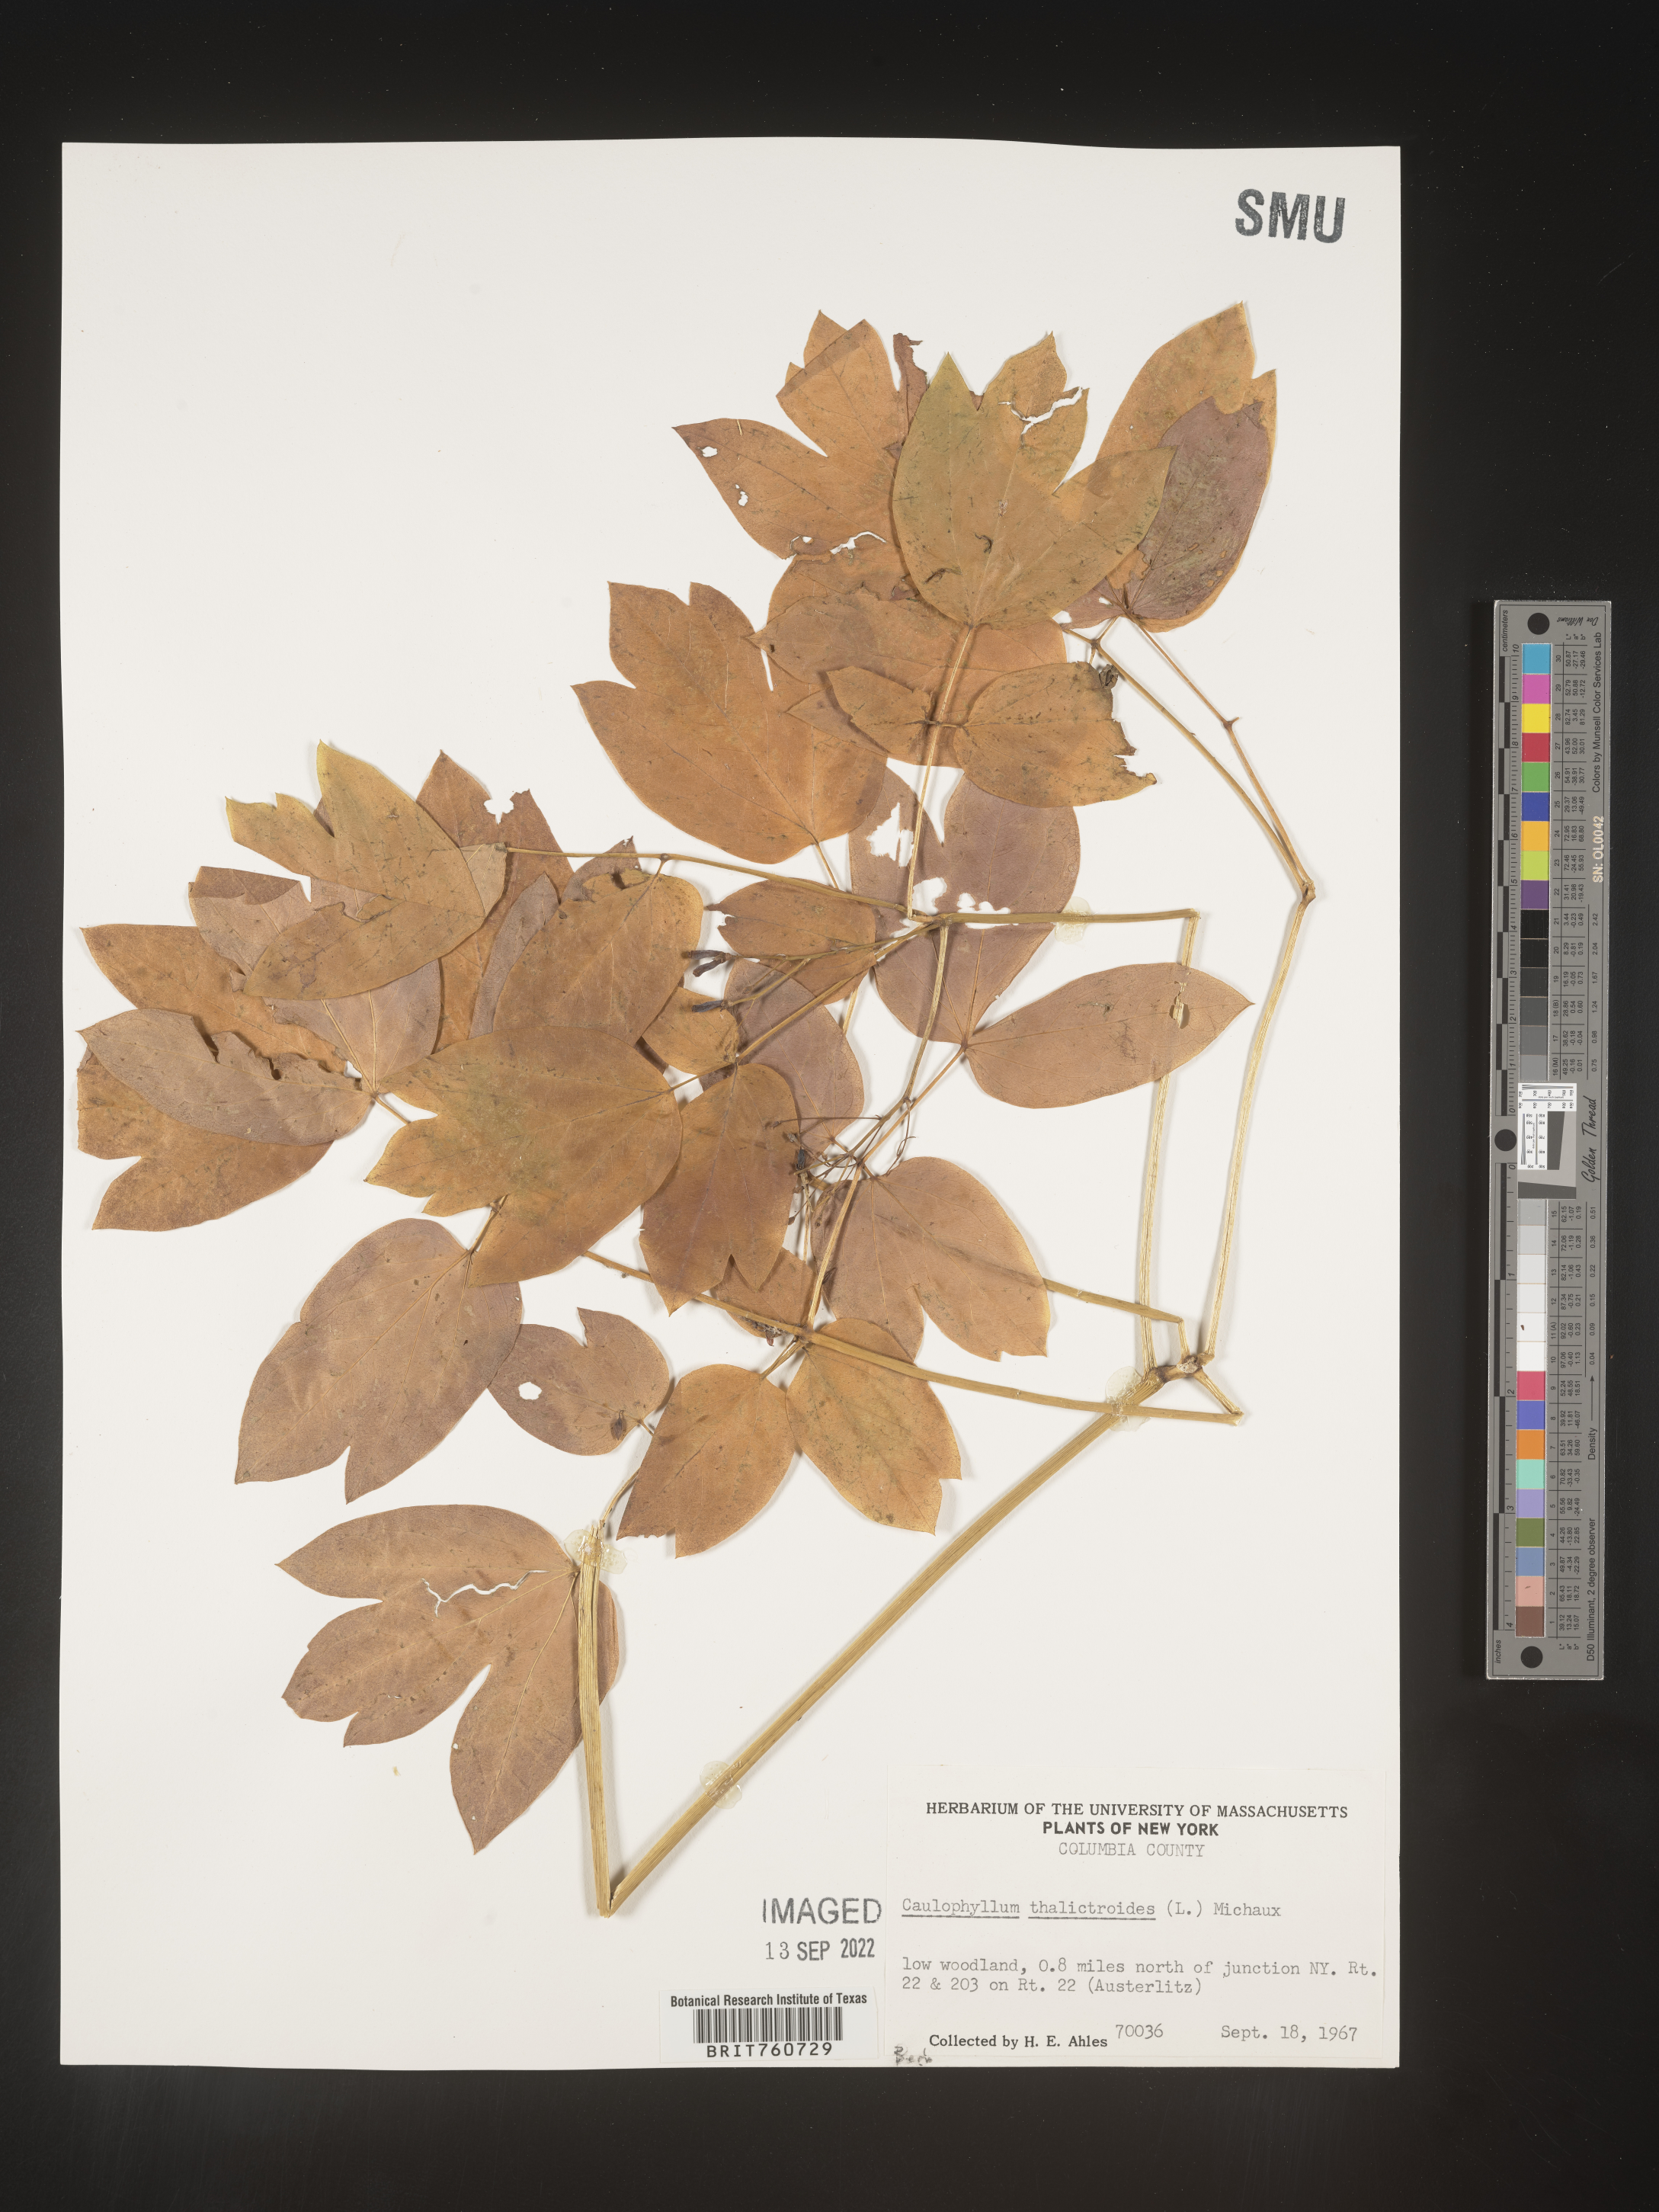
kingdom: Plantae
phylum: Tracheophyta
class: Magnoliopsida
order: Ranunculales
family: Berberidaceae
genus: Caulophyllum
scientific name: Caulophyllum thalictroides
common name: Blue cohosh
